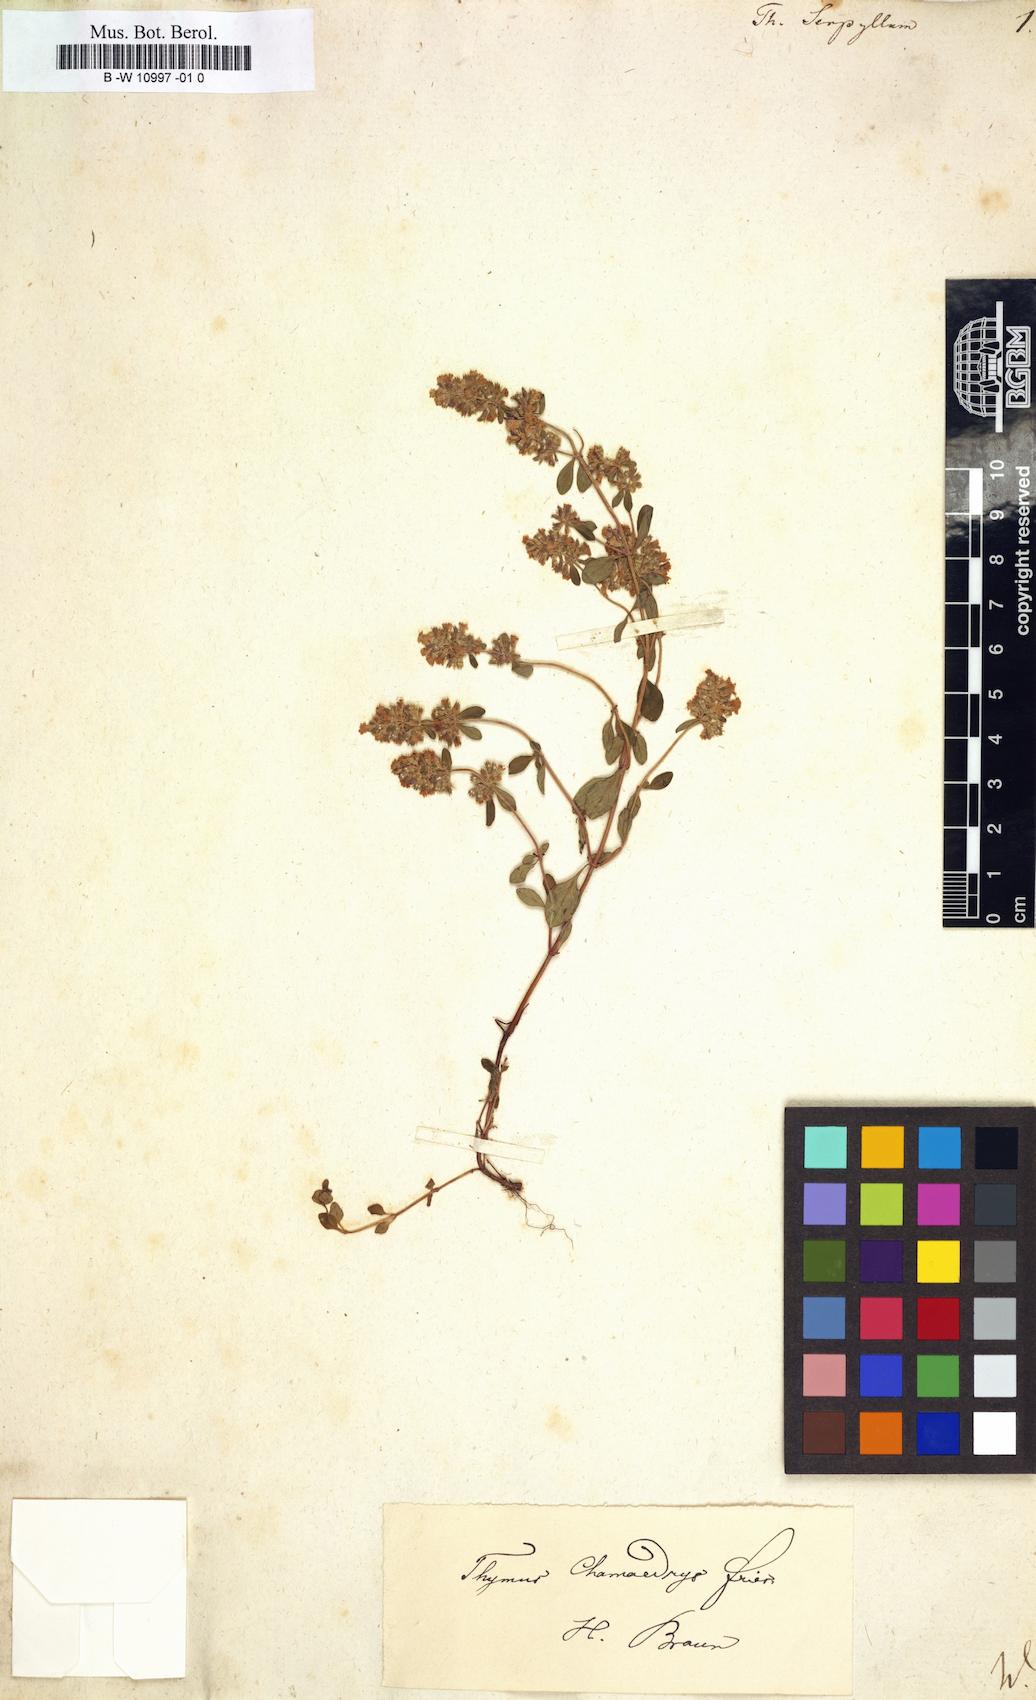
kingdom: Plantae
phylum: Tracheophyta
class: Magnoliopsida
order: Lamiales
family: Lamiaceae
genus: Thymus
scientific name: Thymus serpyllum
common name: Breckland thyme
